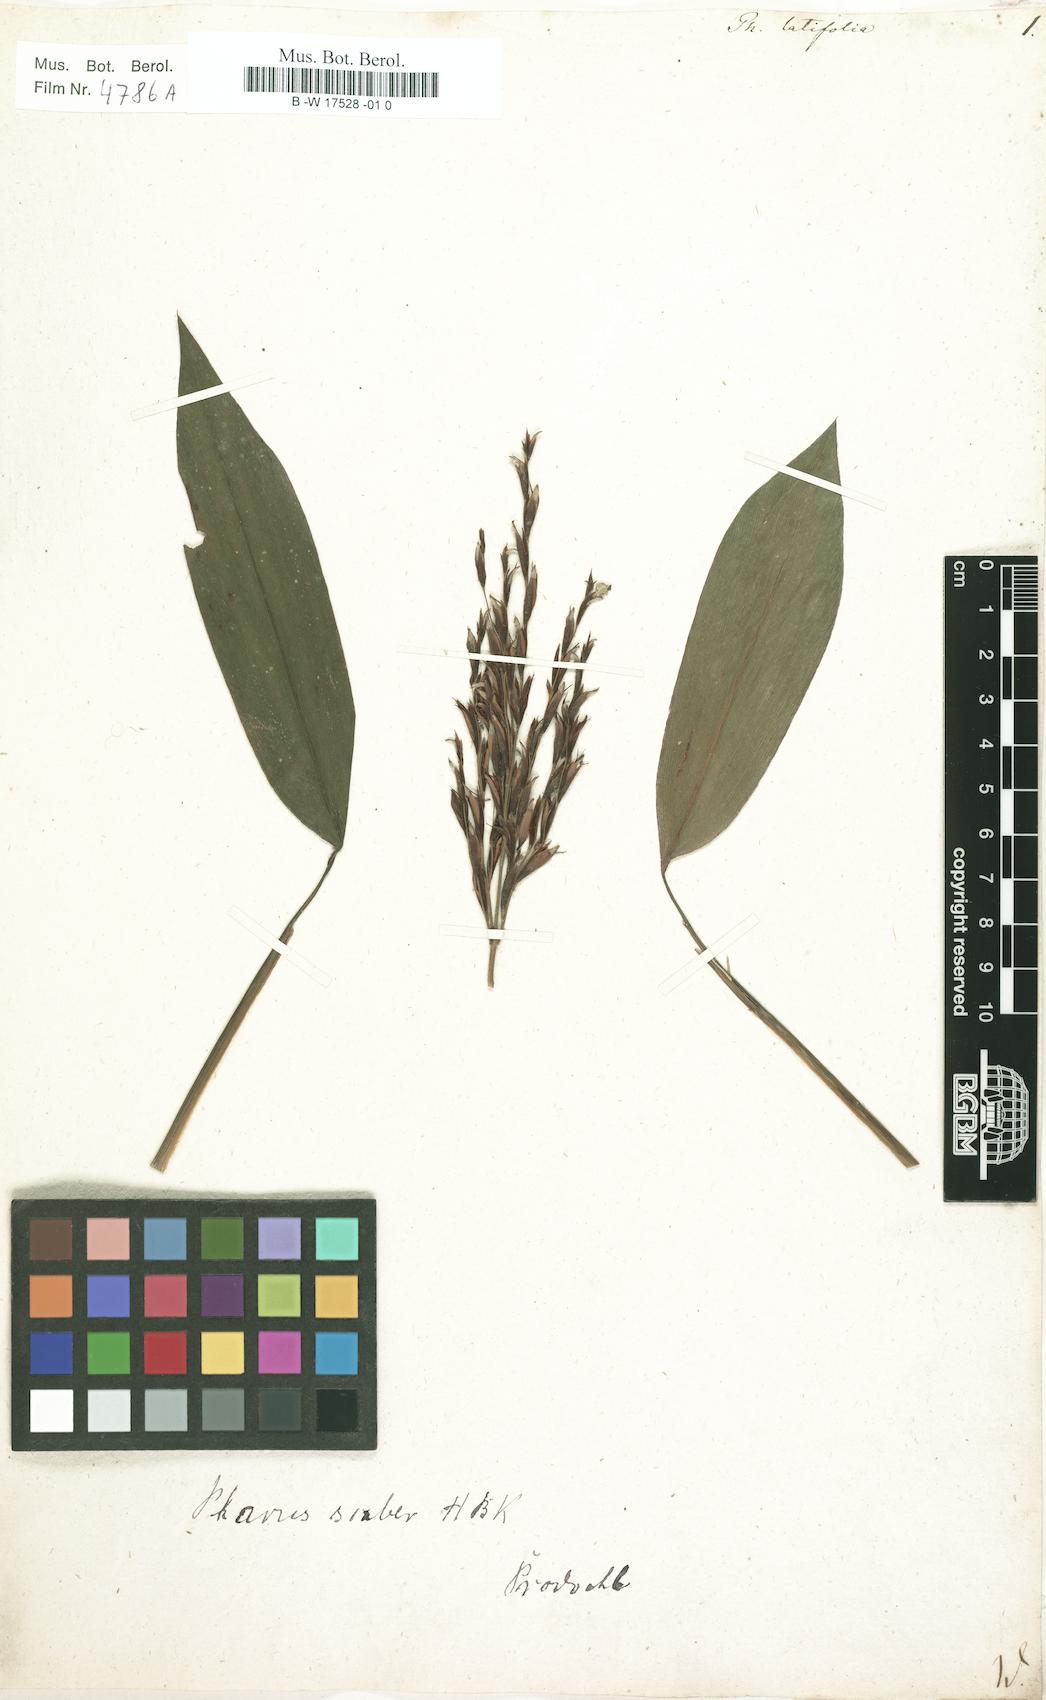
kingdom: Plantae
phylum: Tracheophyta
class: Liliopsida
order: Poales
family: Poaceae
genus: Pharus
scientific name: Pharus latifolius
